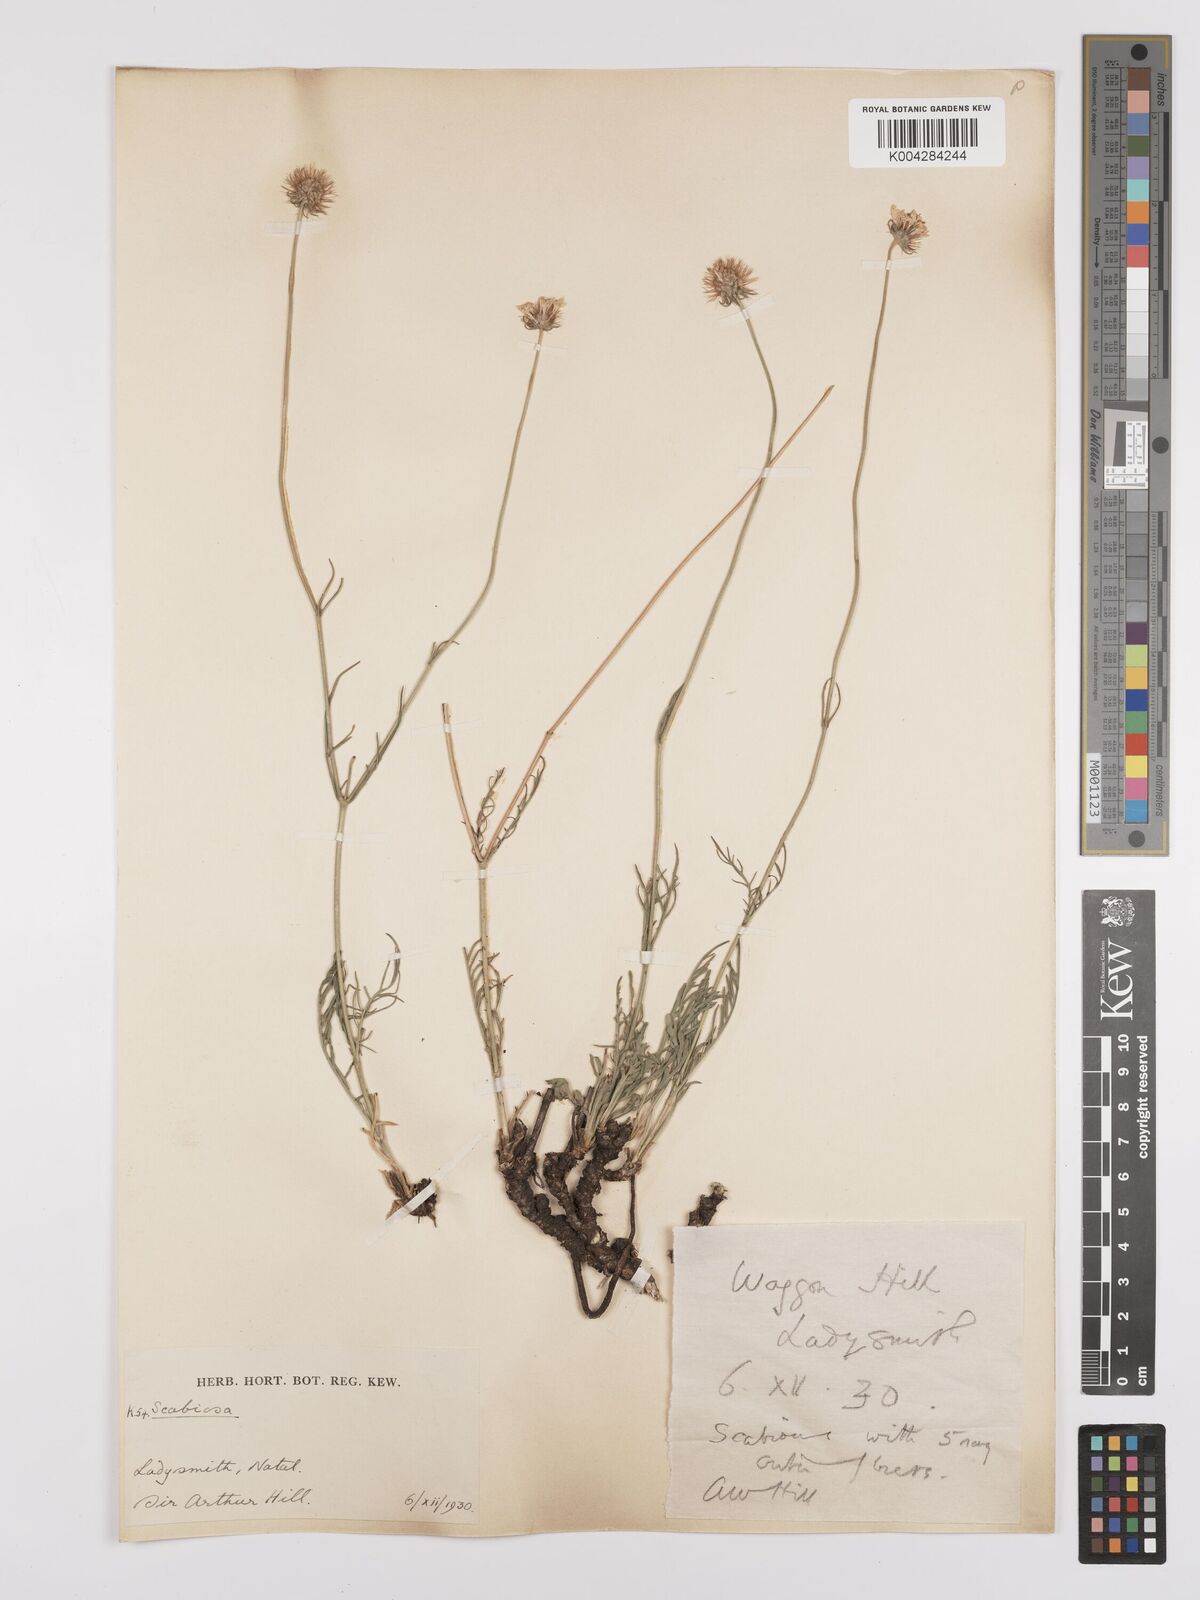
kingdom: Plantae
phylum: Tracheophyta
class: Magnoliopsida
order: Dipsacales
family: Caprifoliaceae
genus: Scabiosa
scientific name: Scabiosa columbaria
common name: Small scabious
